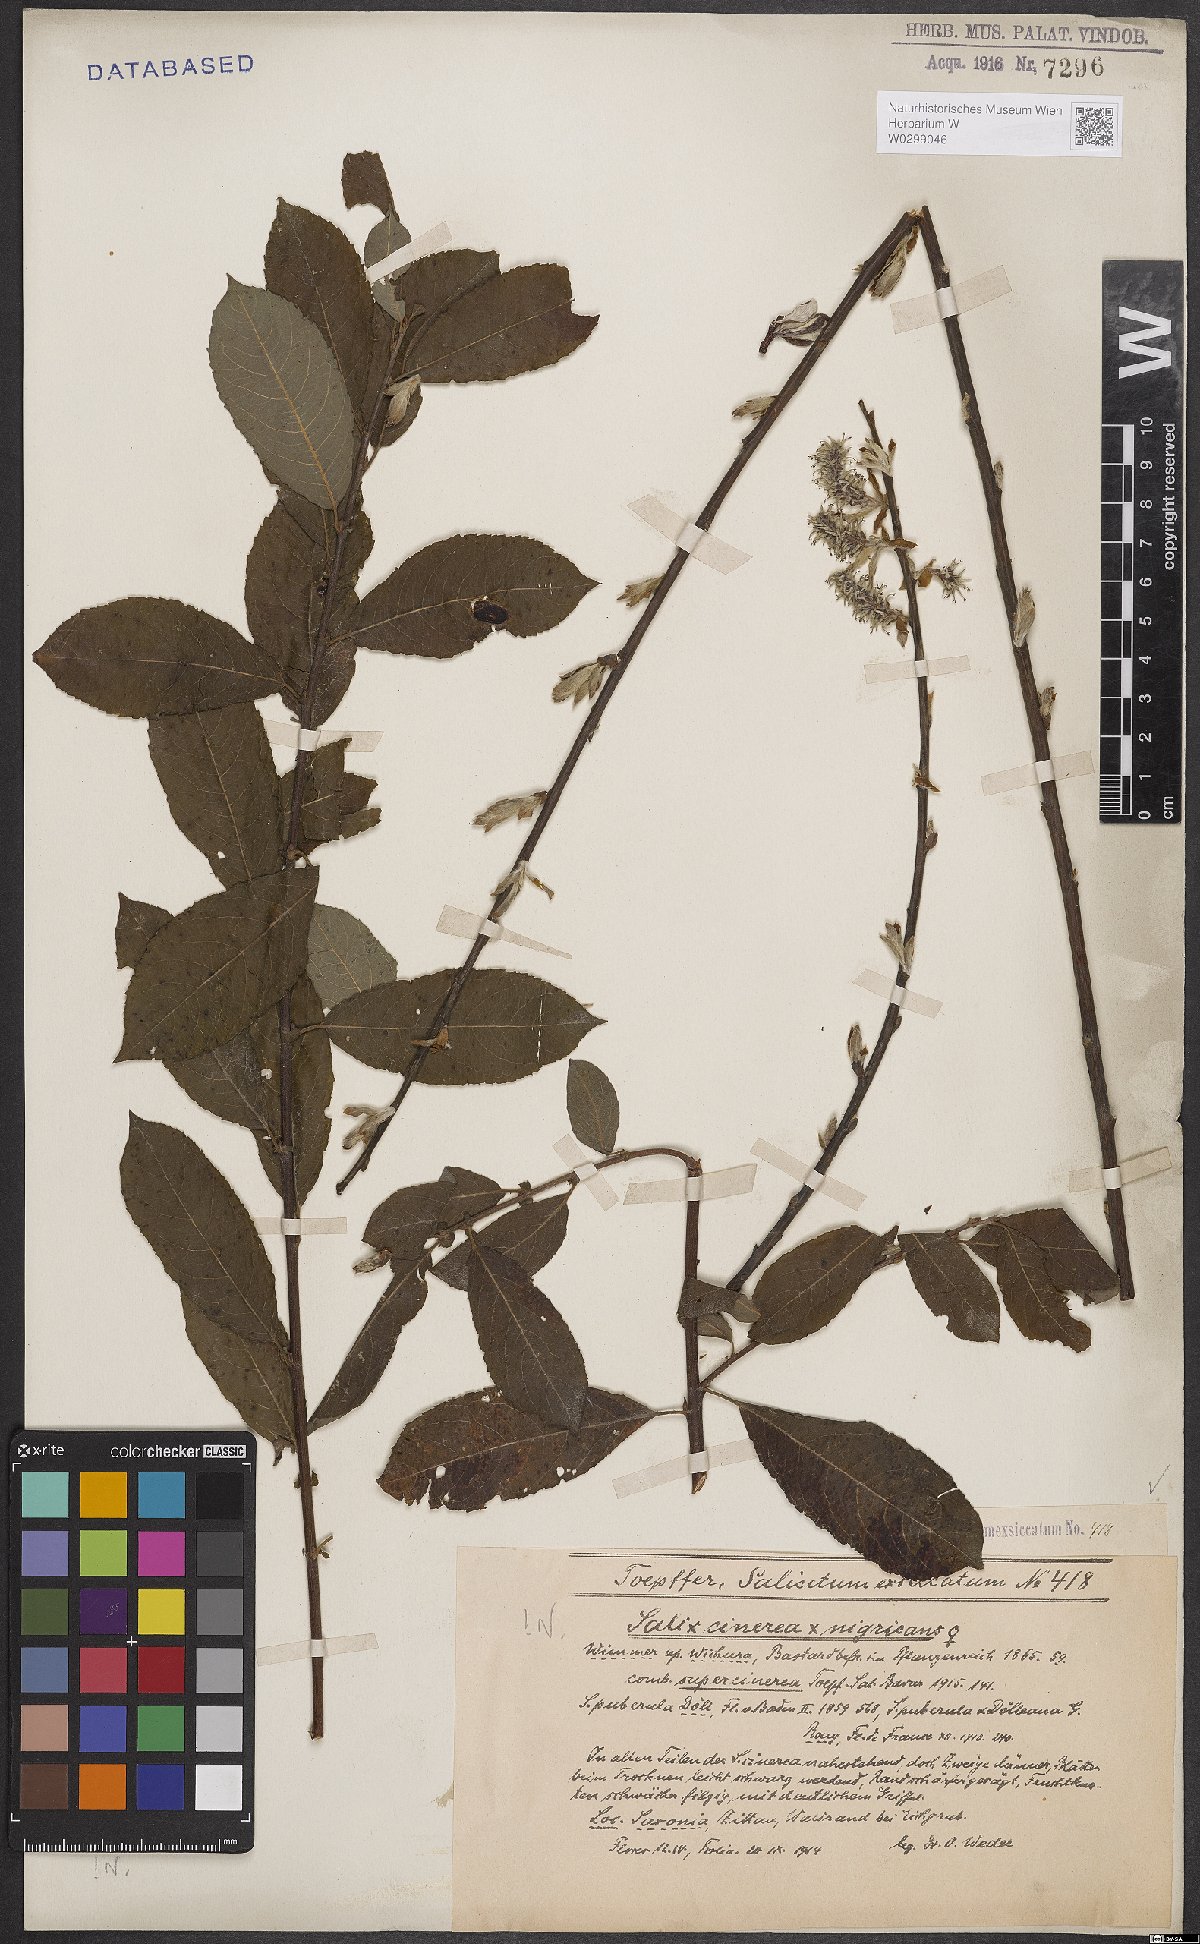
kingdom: Plantae
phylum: Tracheophyta
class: Magnoliopsida
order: Malpighiales
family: Salicaceae
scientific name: Salicaceae
